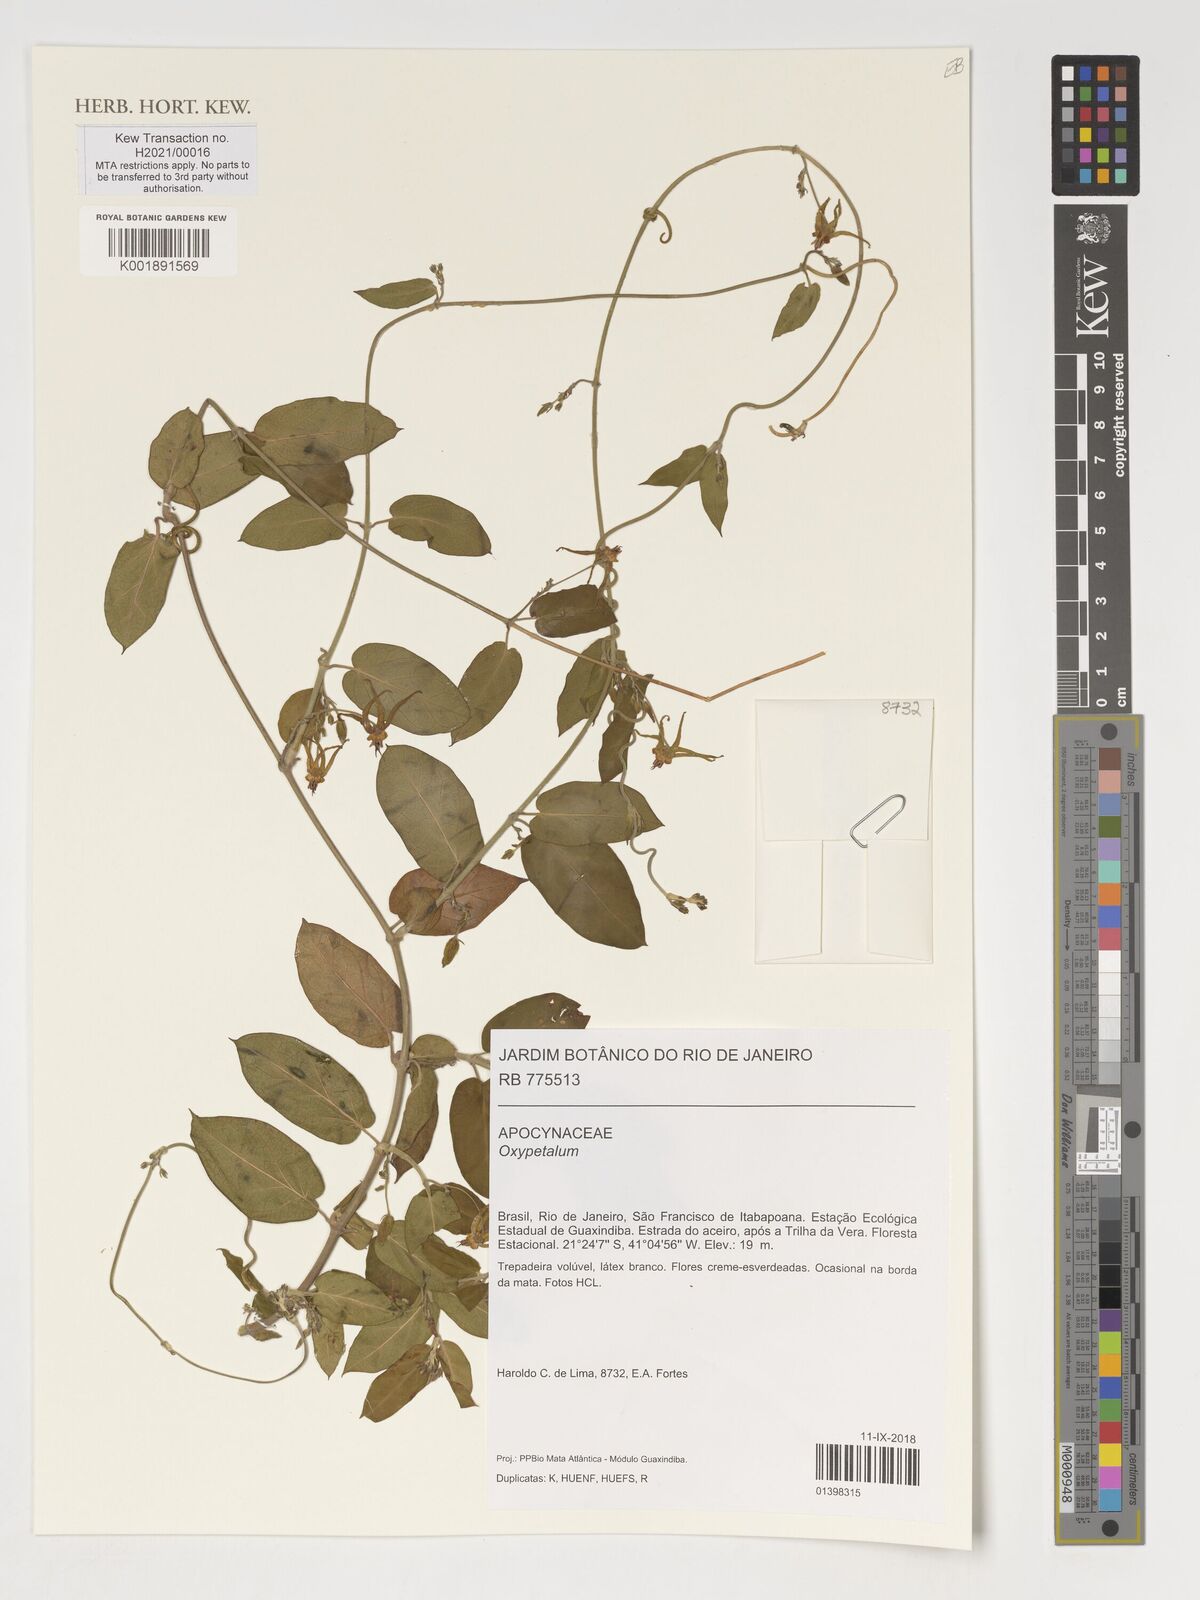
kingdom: Plantae
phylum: Tracheophyta
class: Magnoliopsida
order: Gentianales
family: Apocynaceae
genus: Oxypetalum
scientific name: Oxypetalum
